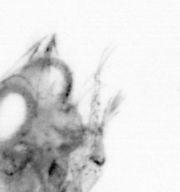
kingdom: Animalia
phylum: Arthropoda
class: Copepoda
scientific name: Copepoda
